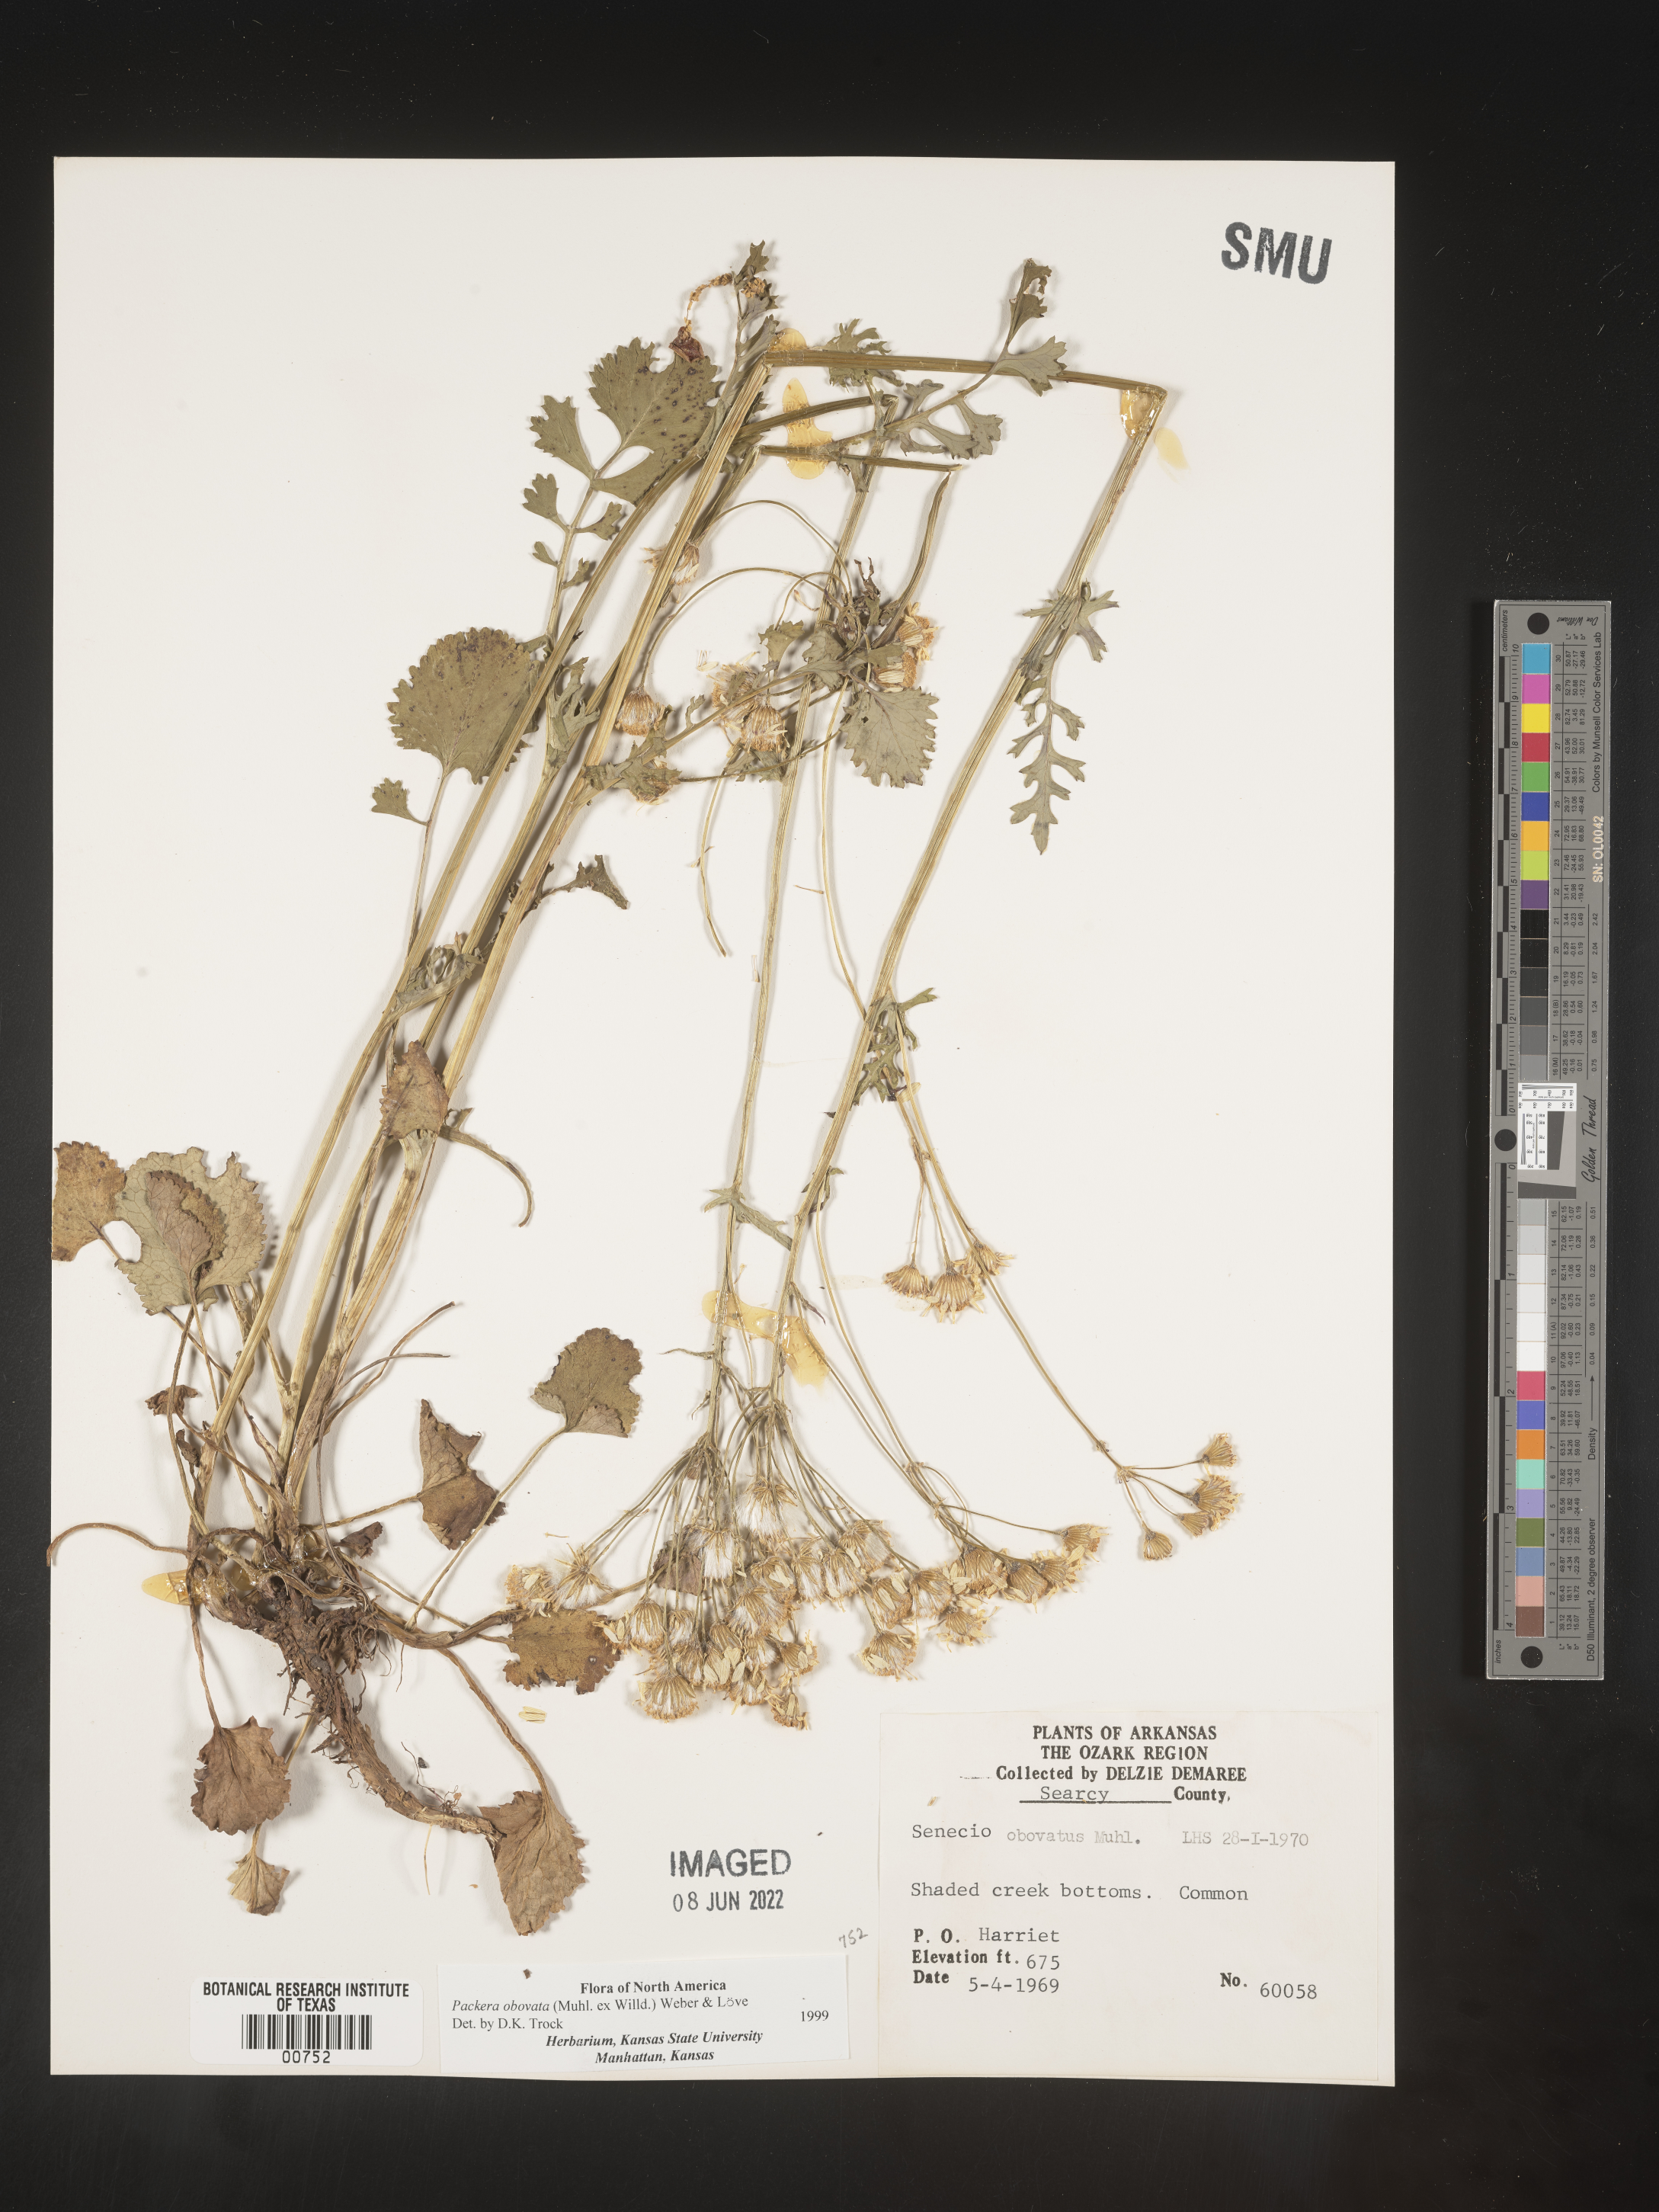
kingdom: Plantae
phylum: Tracheophyta
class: Magnoliopsida
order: Asterales
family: Asteraceae
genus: Packera
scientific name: Packera obovata
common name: Round-leaf ragwort
